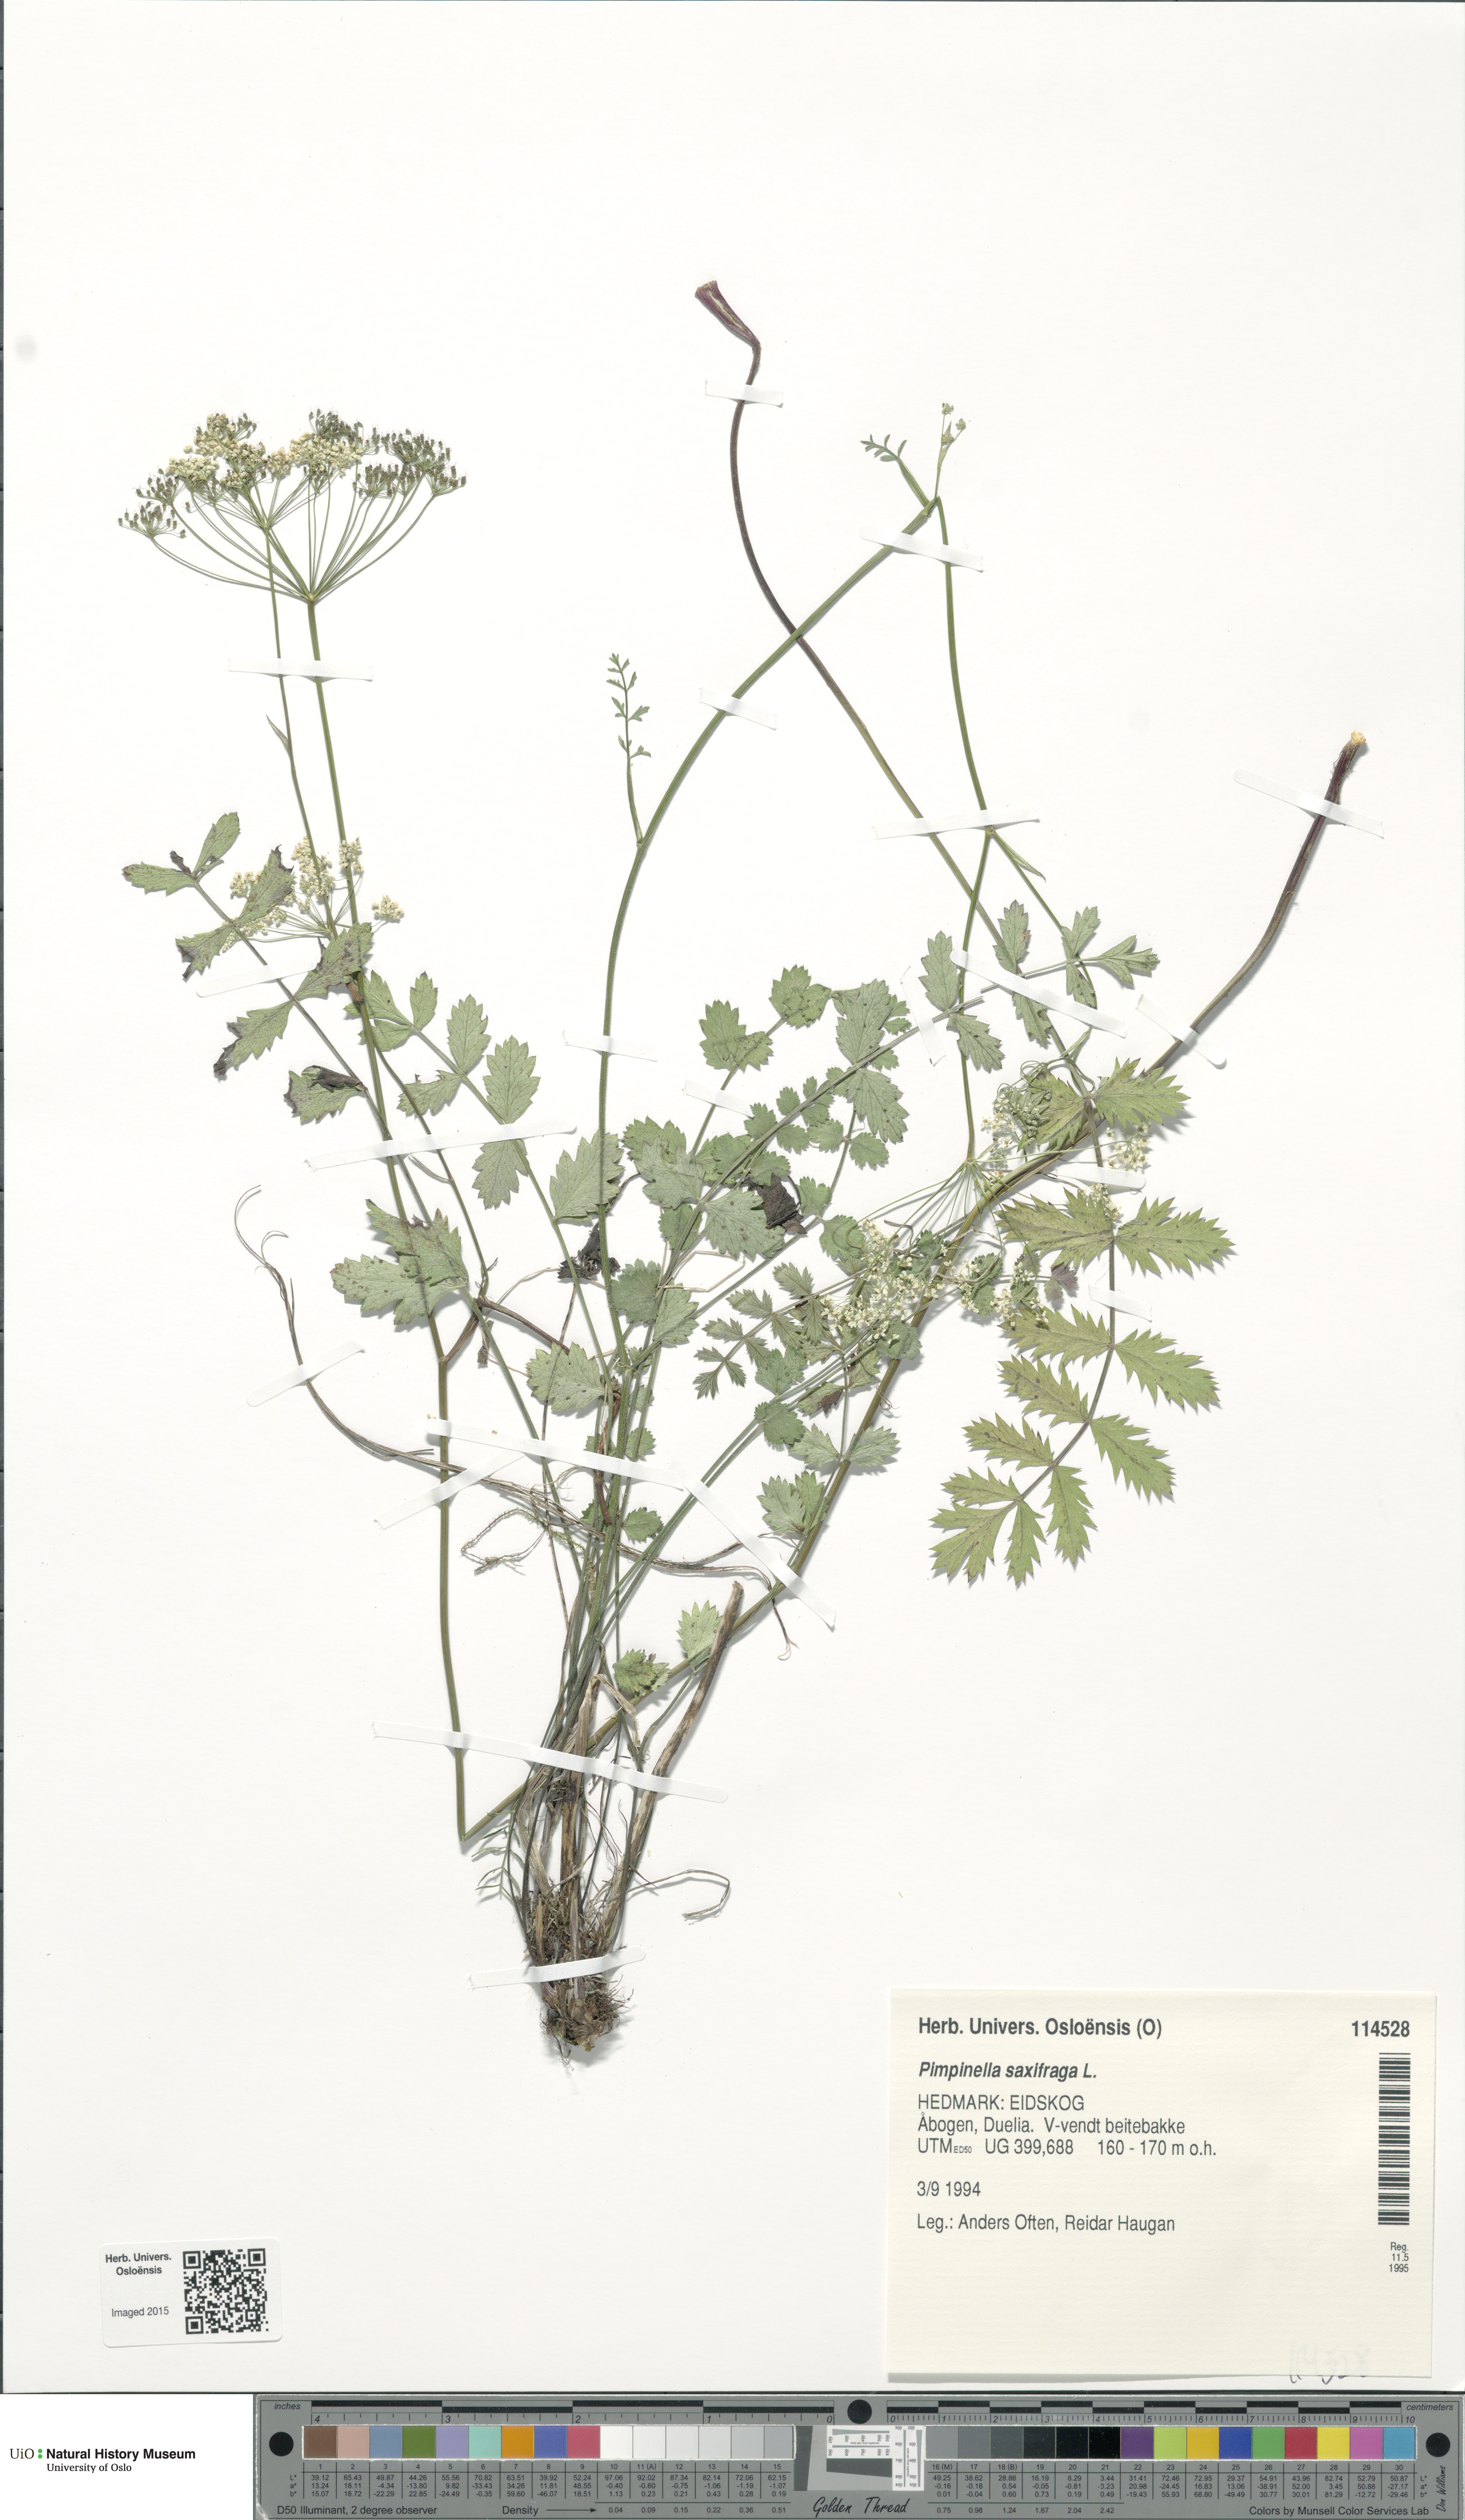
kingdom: Plantae
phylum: Tracheophyta
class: Magnoliopsida
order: Apiales
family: Apiaceae
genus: Pimpinella
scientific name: Pimpinella saxifraga
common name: Burnet-saxifrage
